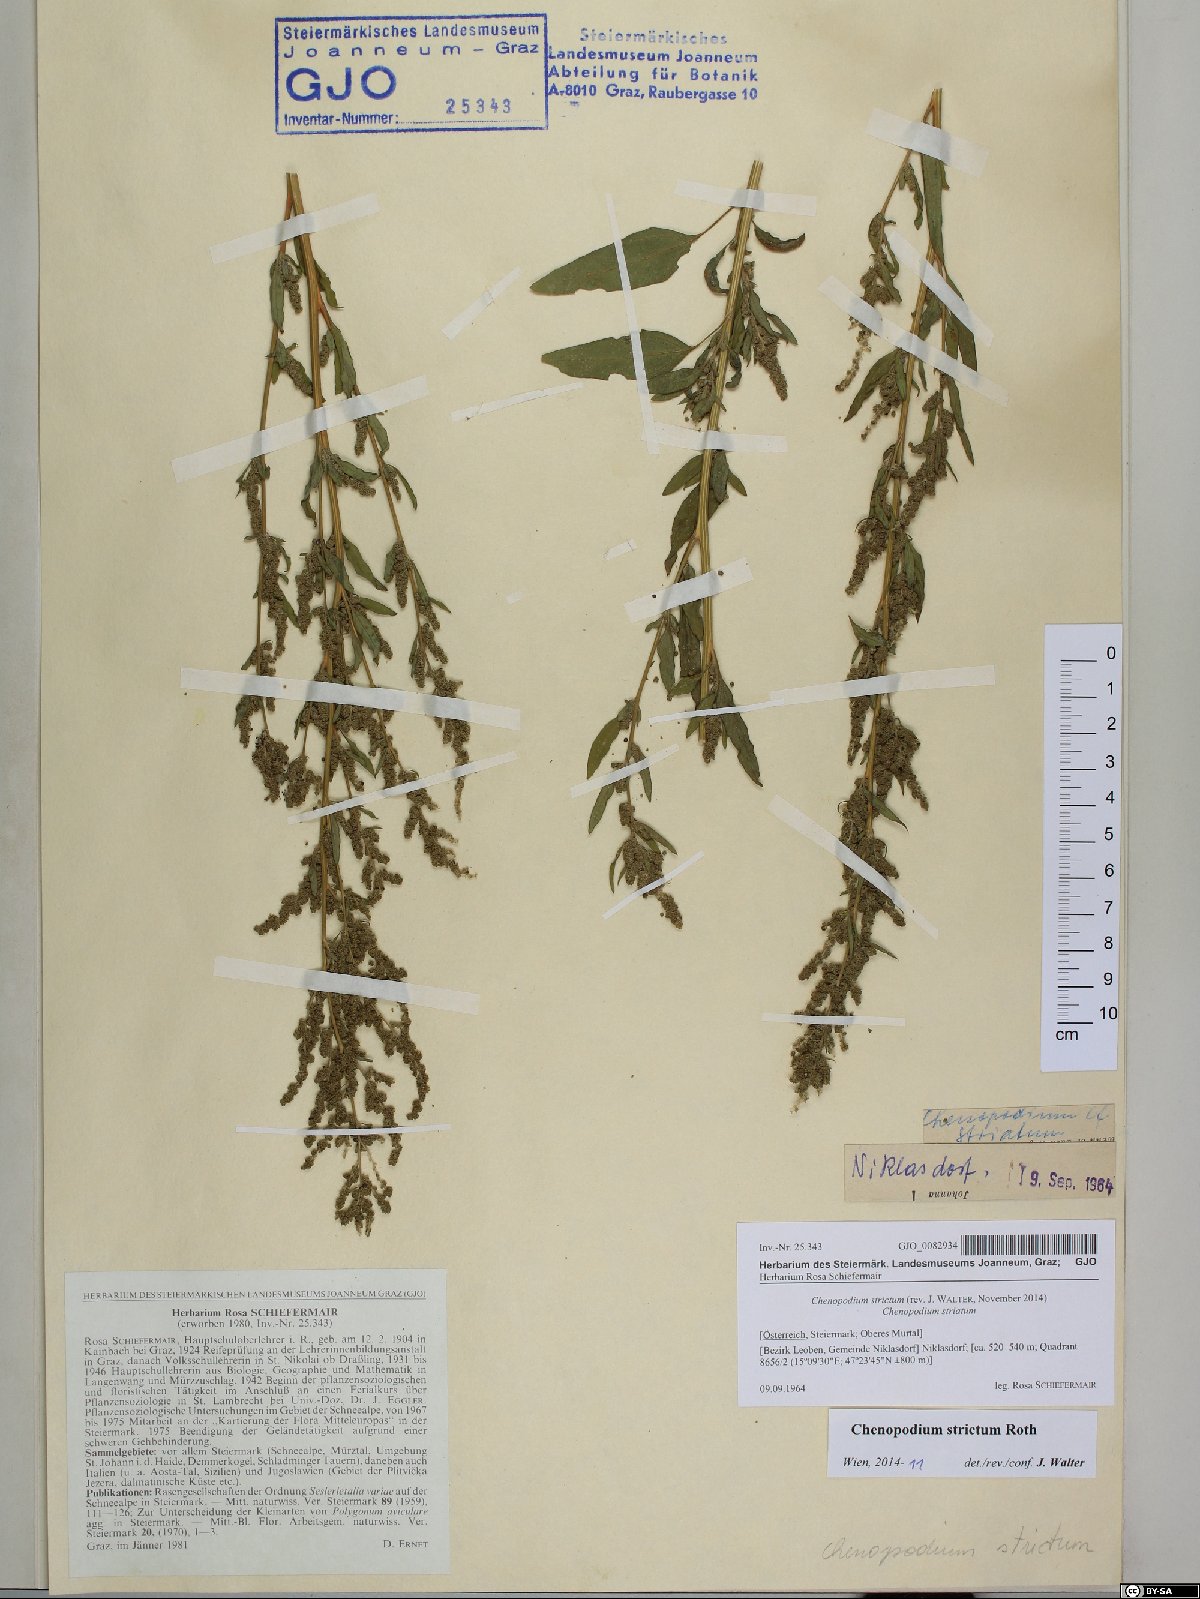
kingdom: Plantae
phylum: Tracheophyta
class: Magnoliopsida
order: Caryophyllales
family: Amaranthaceae
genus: Chenopodium
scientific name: Chenopodium album
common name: Fat-hen
